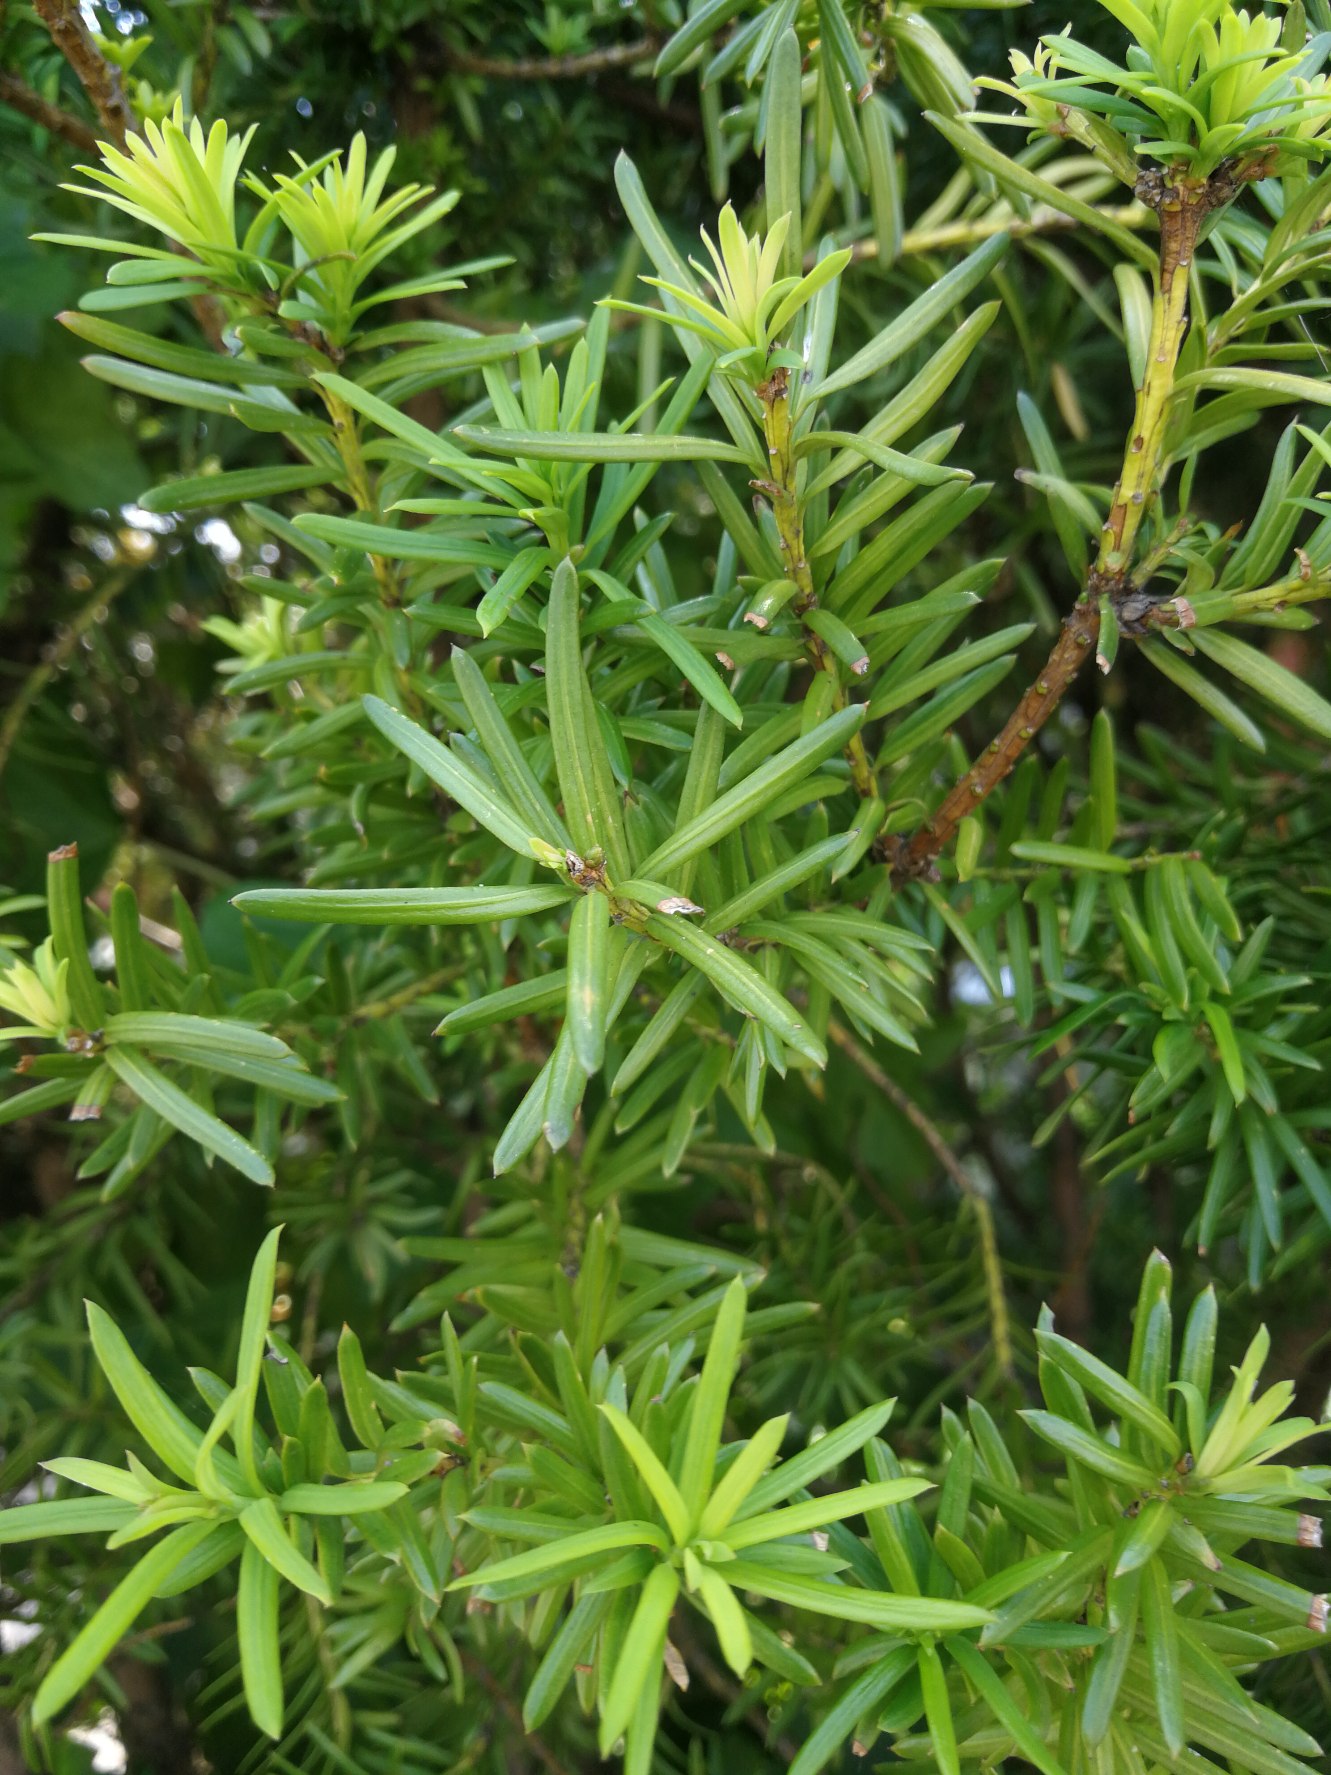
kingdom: Plantae
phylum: Tracheophyta
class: Pinopsida
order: Pinales
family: Taxaceae
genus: Taxus
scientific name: Taxus baccata
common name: Almindelig taks
